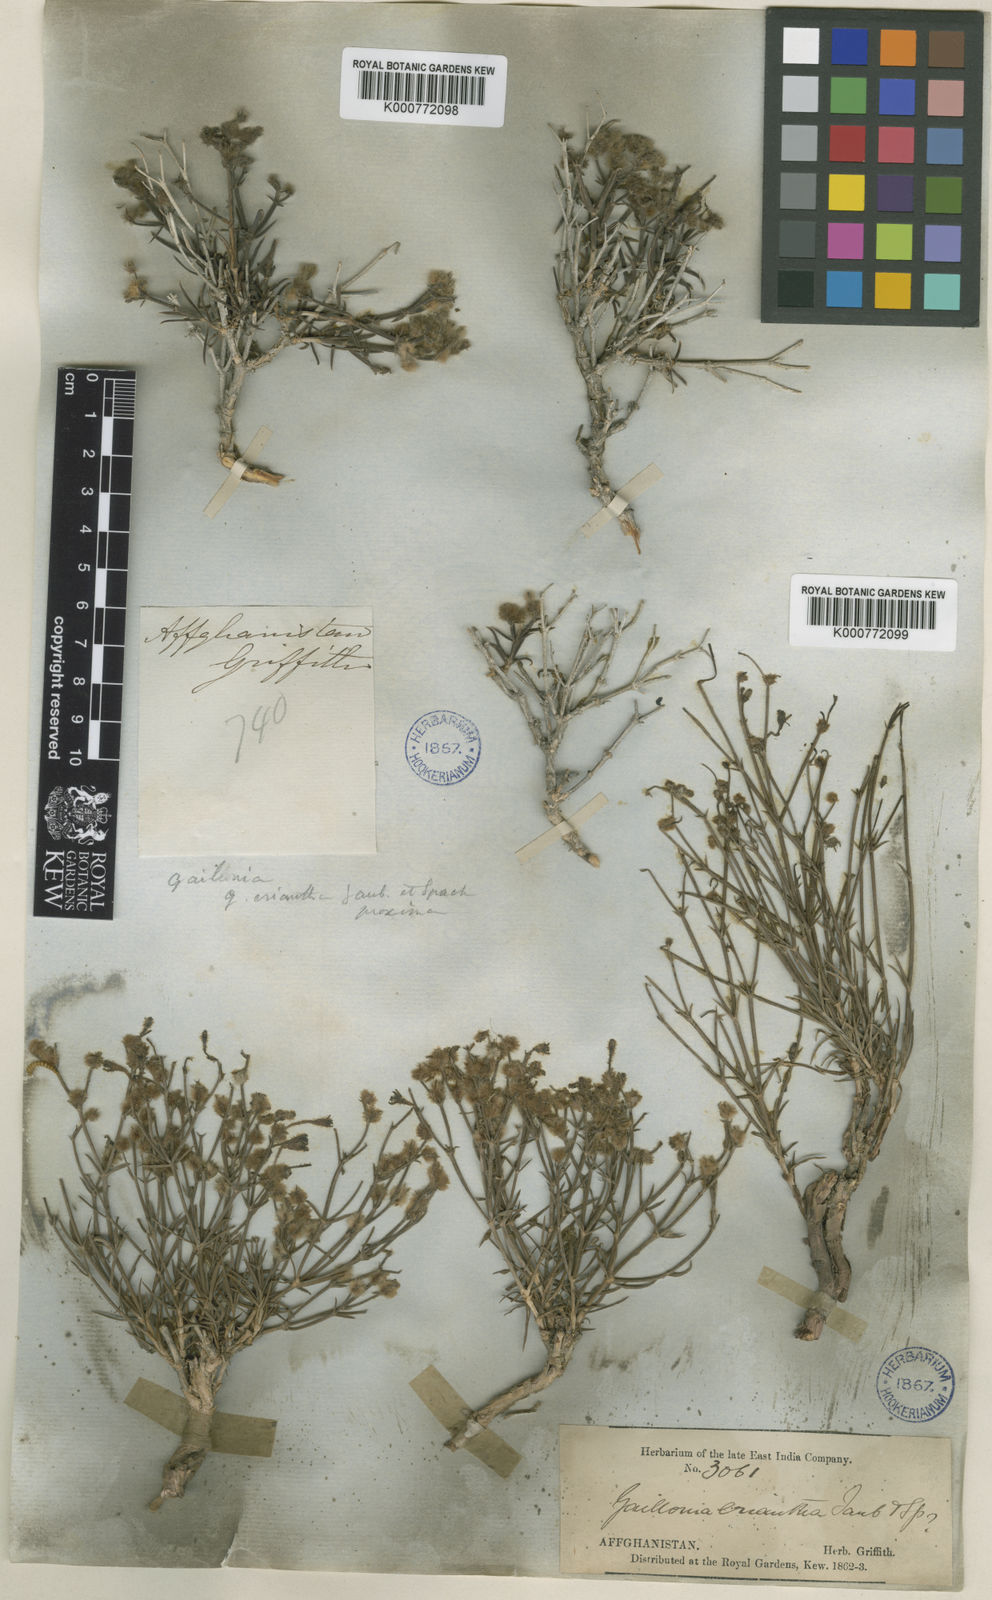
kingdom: Plantae
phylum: Tracheophyta
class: Magnoliopsida
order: Gentianales
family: Rubiaceae
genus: Plocama
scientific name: Plocama eriantha
